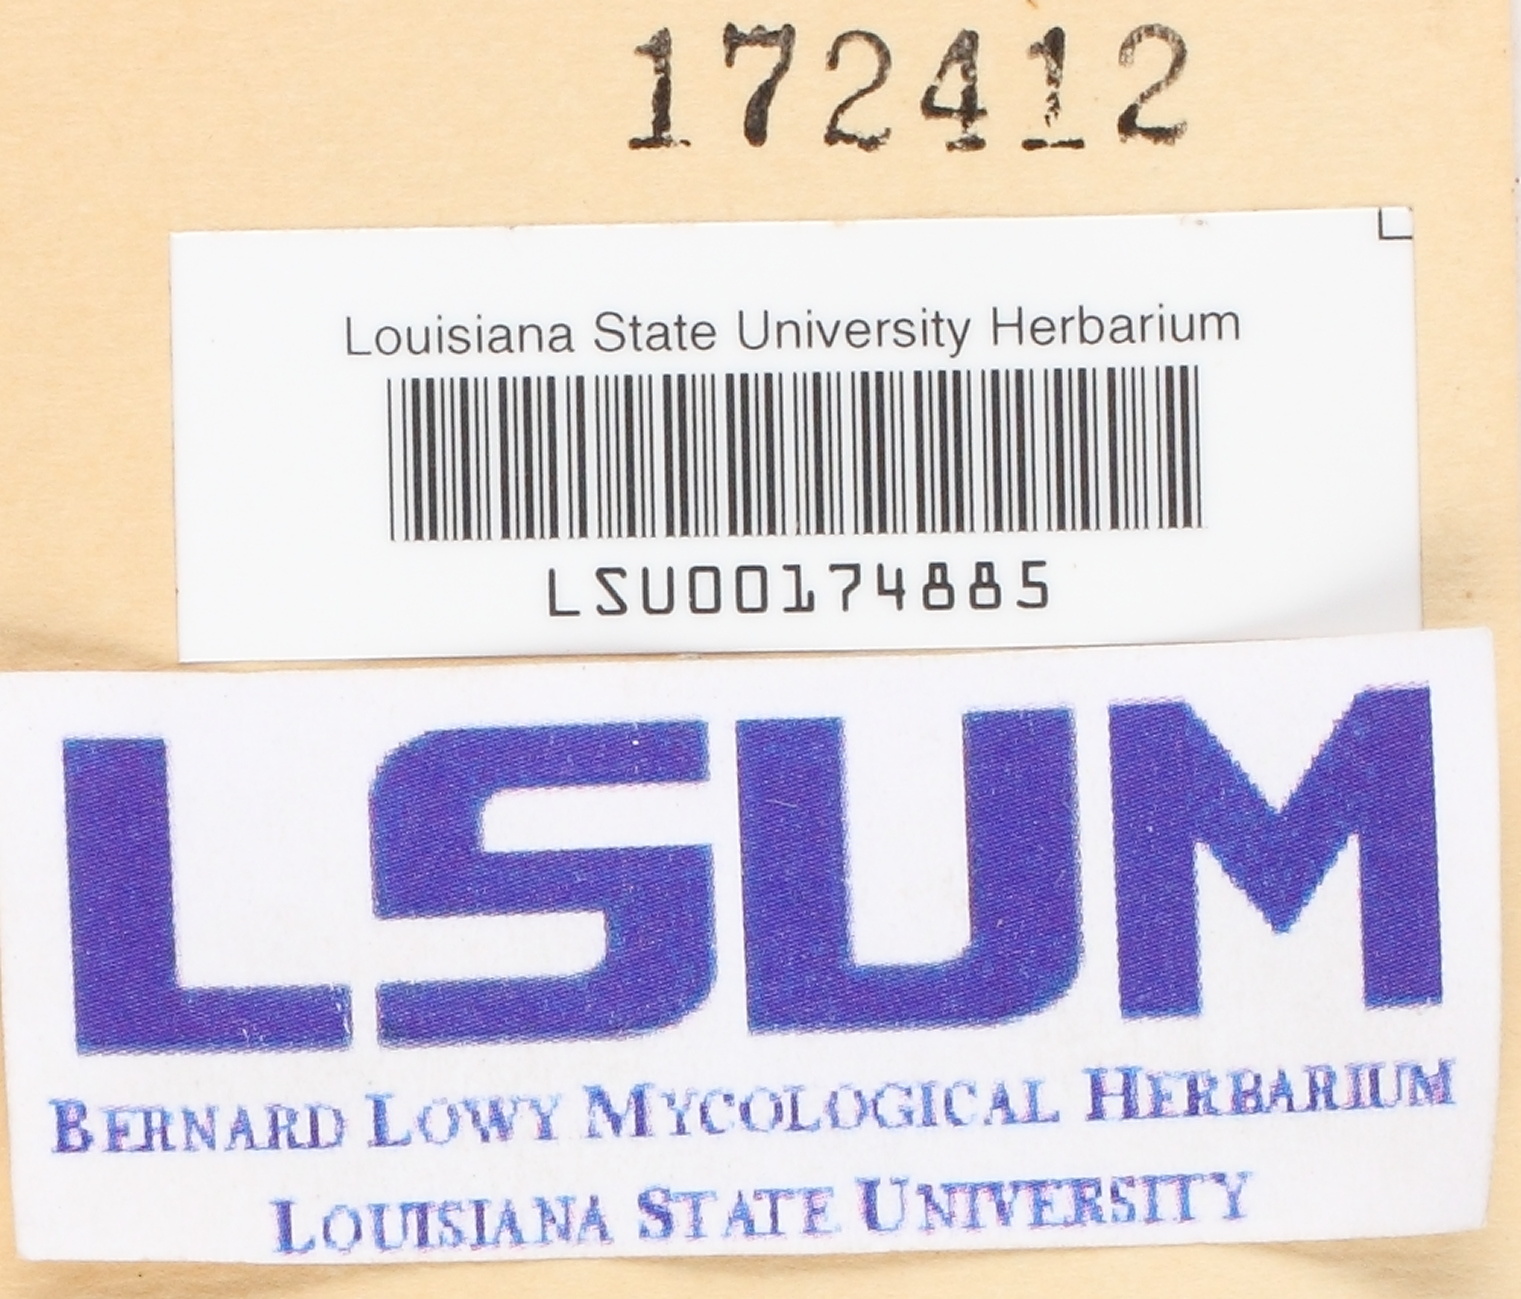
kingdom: Fungi
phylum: Basidiomycota
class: Tremellomycetes
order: Tremellales
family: Exidiaceae
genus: Eichleriella
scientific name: Eichleriella
